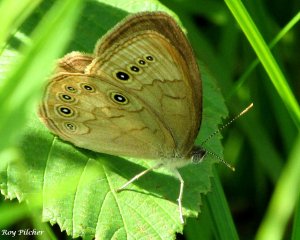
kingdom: Animalia
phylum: Arthropoda
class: Insecta
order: Lepidoptera
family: Nymphalidae
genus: Lethe
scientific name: Lethe eurydice
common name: Eyed Brown
